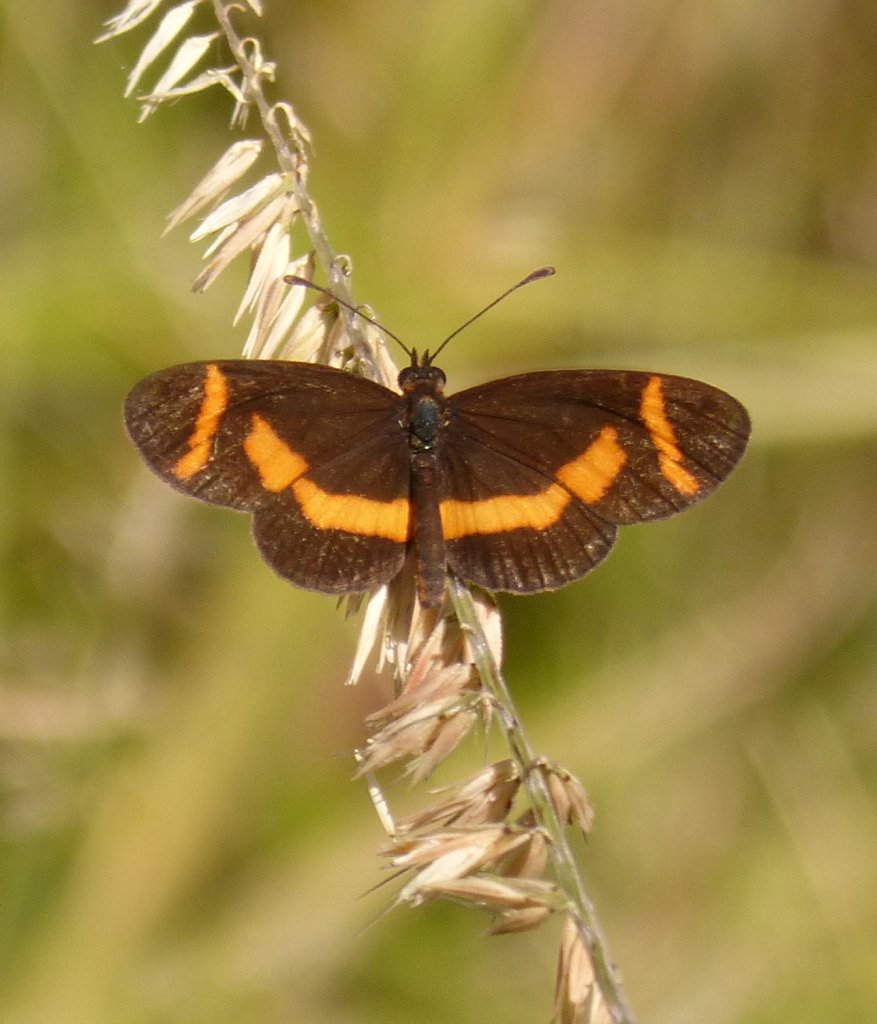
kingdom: Animalia
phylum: Arthropoda
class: Insecta
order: Lepidoptera
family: Nymphalidae
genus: Microtia
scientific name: Microtia elva
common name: Elf
